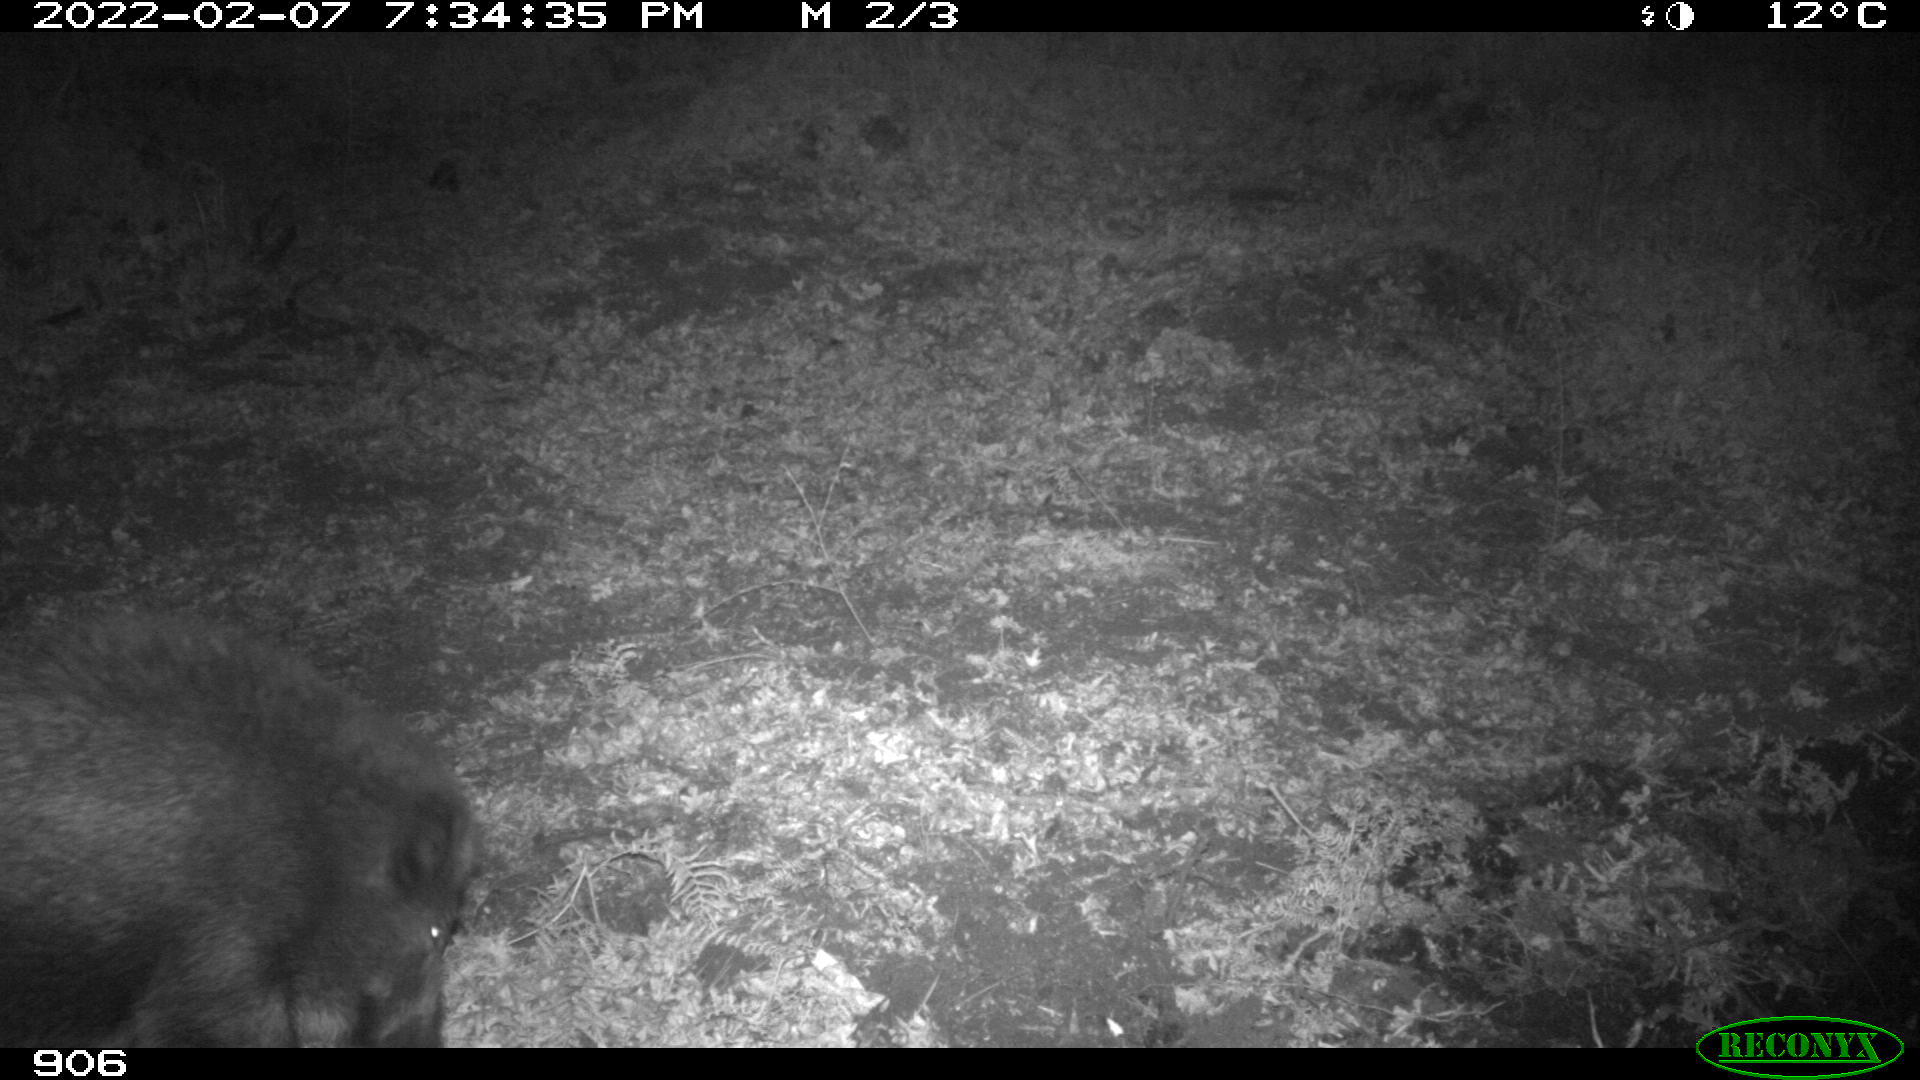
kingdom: Animalia
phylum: Chordata
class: Mammalia
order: Artiodactyla
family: Suidae
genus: Sus
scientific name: Sus scrofa
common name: Wild boar
